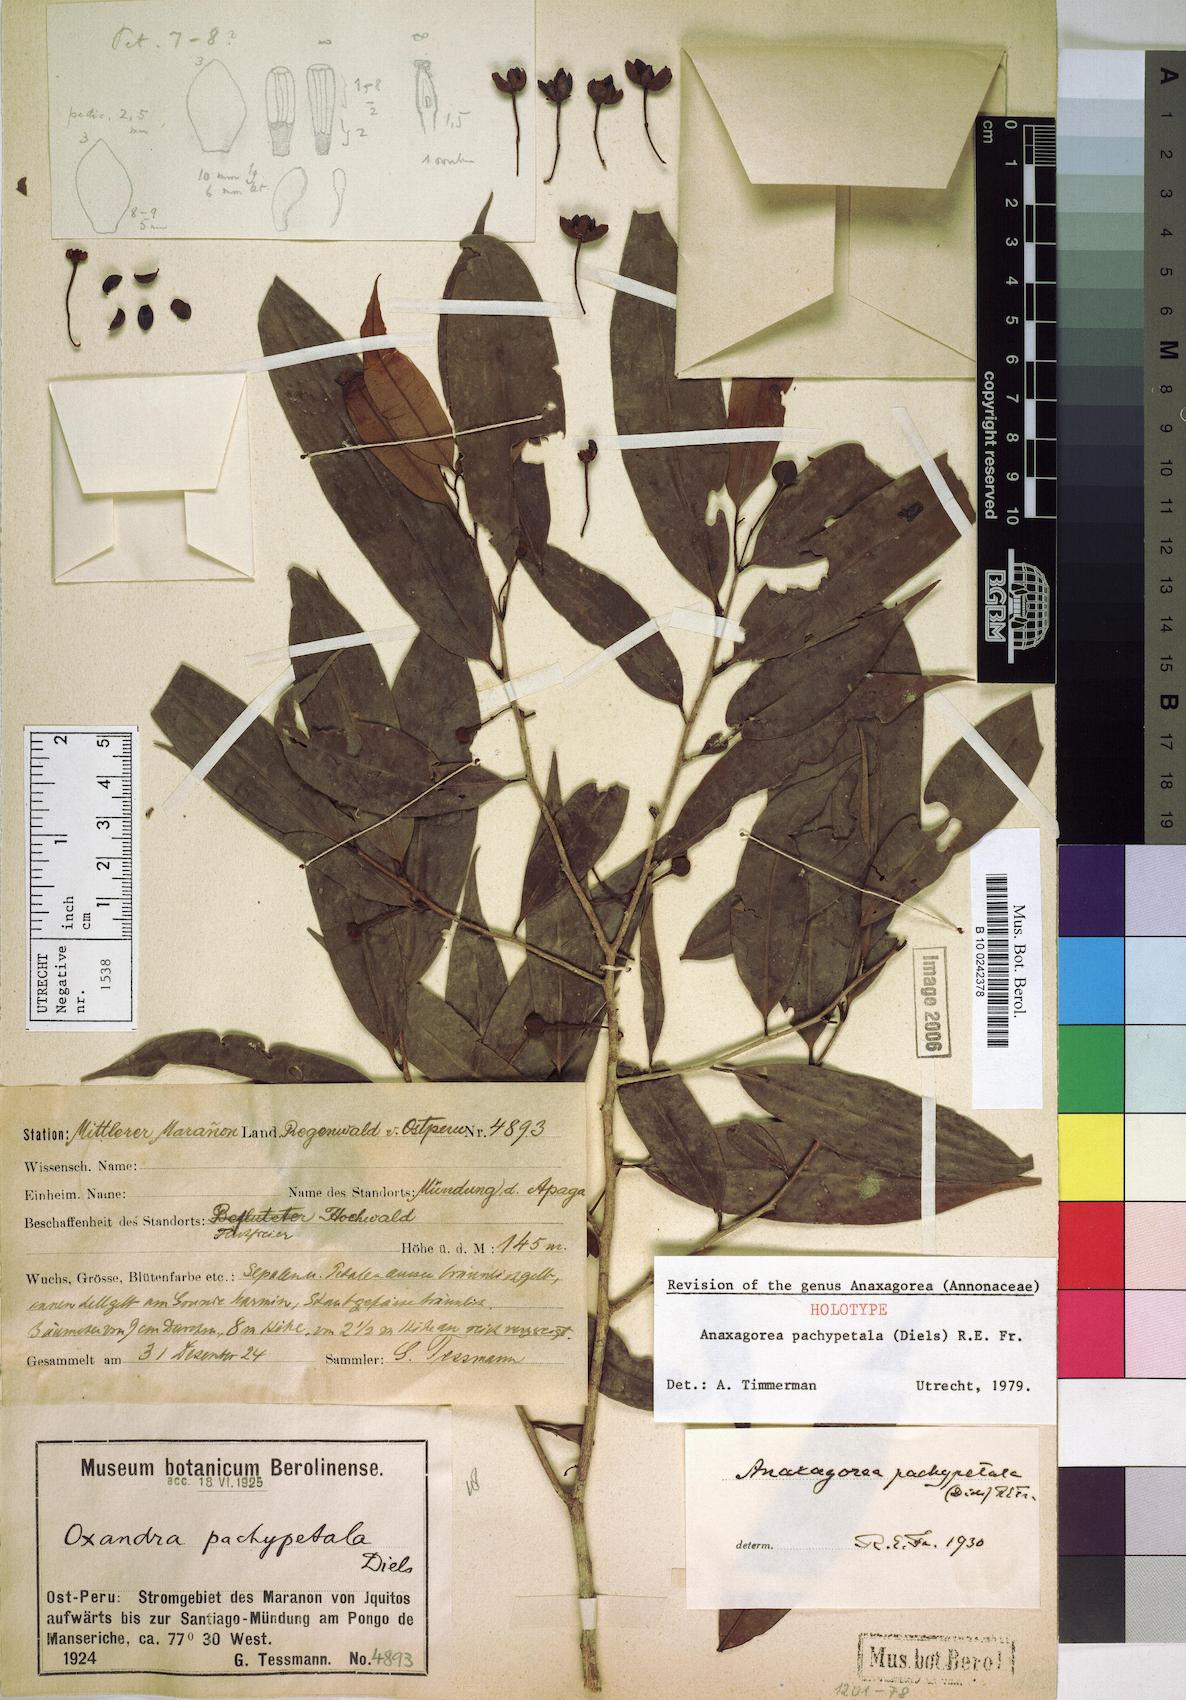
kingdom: Plantae
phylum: Tracheophyta
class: Magnoliopsida
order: Magnoliales
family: Annonaceae
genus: Anaxagorea
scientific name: Anaxagorea pachypetala
